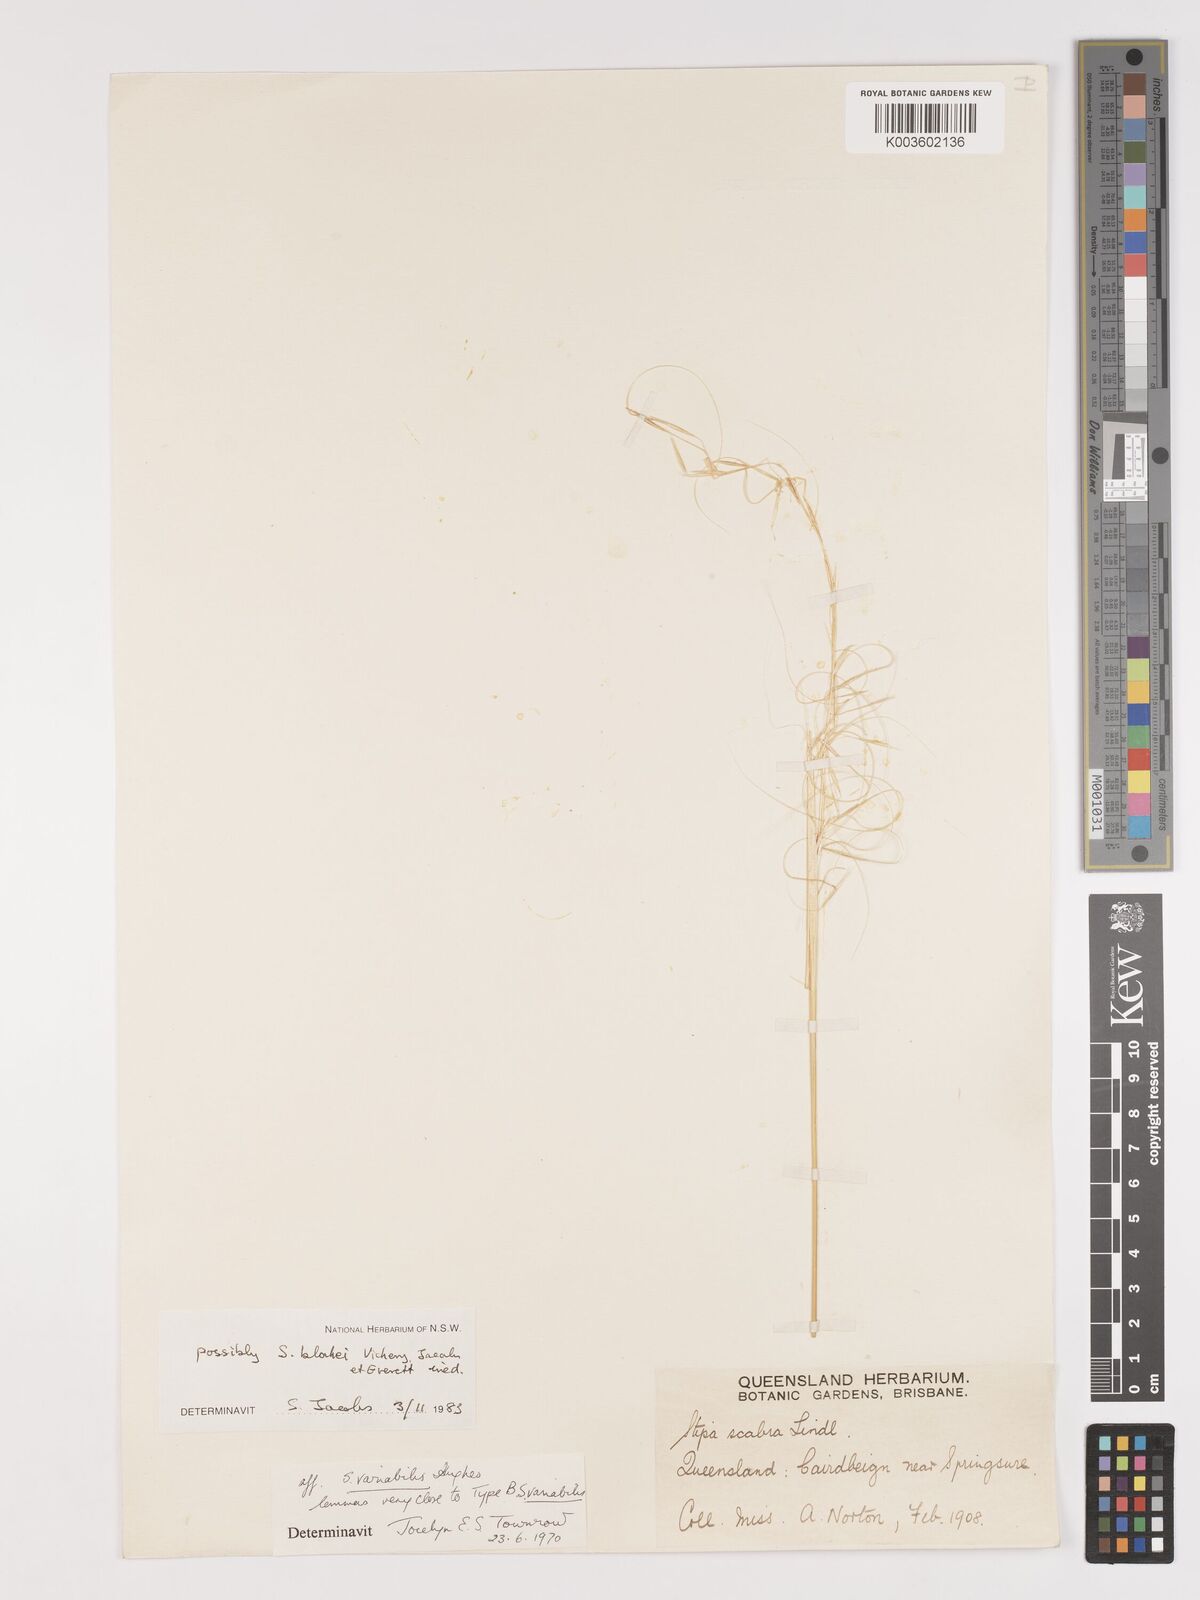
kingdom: Plantae
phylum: Tracheophyta
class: Liliopsida
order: Poales
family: Poaceae
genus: Austrostipa
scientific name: Austrostipa blakei
